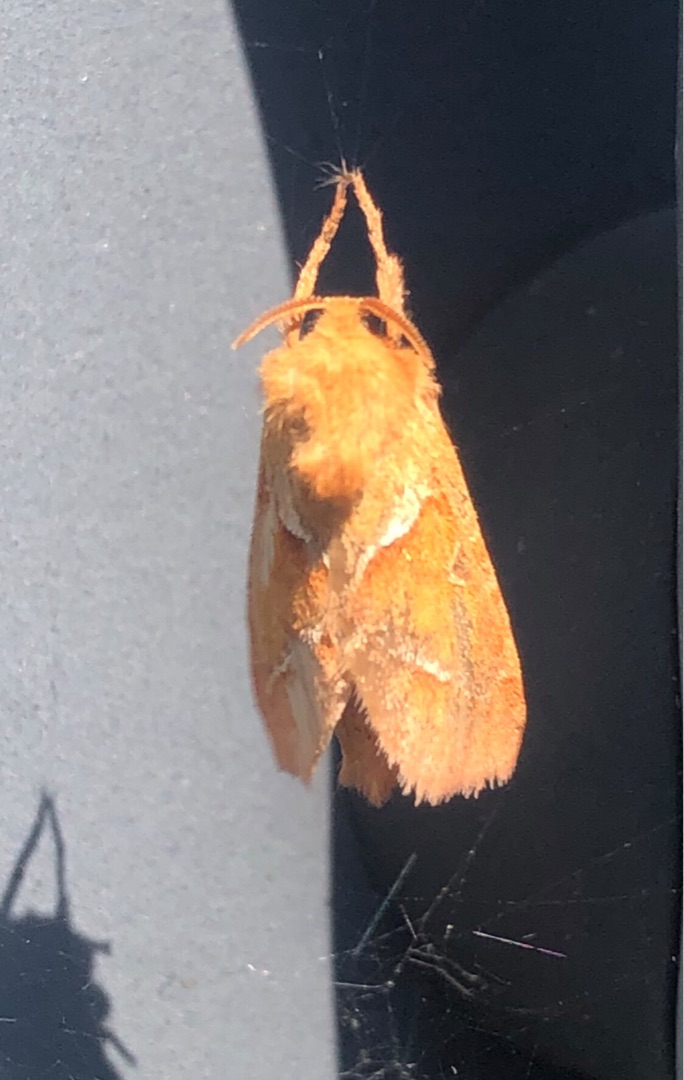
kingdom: Animalia
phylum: Arthropoda
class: Insecta
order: Lepidoptera
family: Hepialidae
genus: Triodia
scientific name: Triodia sylvina
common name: Skræpperodæder
